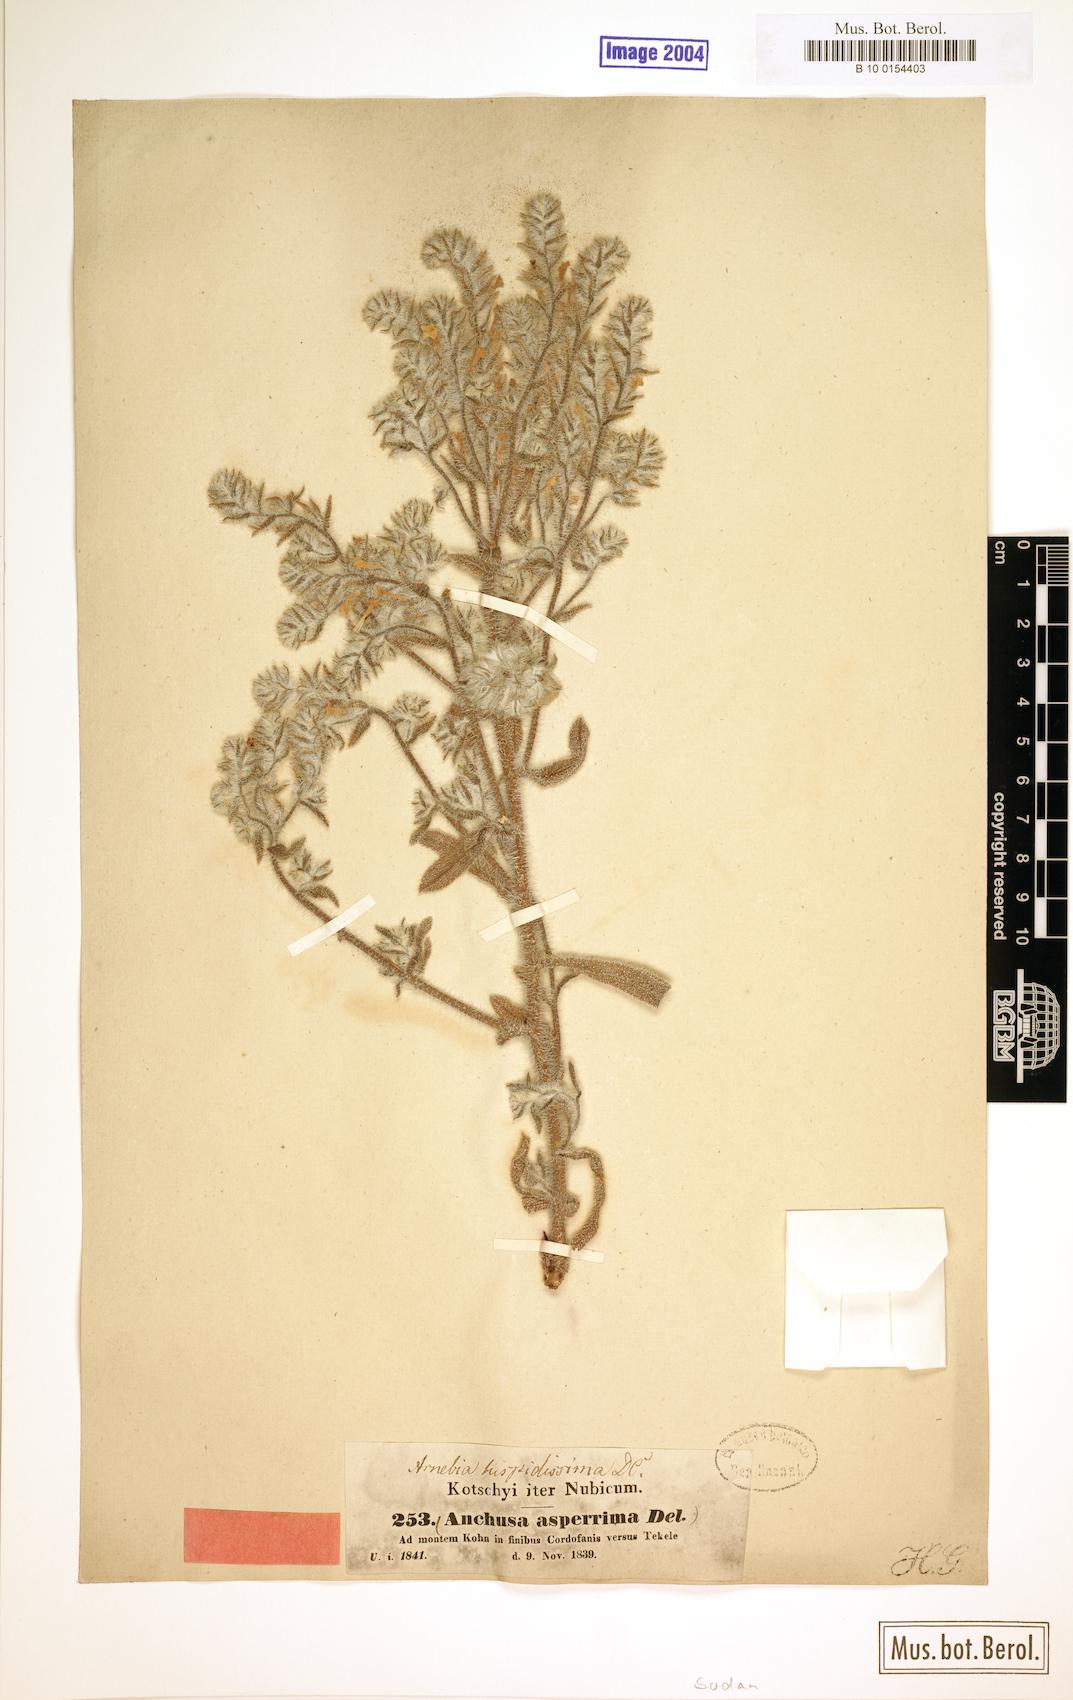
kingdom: Plantae
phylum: Tracheophyta
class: Magnoliopsida
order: Boraginales
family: Boraginaceae
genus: Arnebia
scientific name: Arnebia hispidissima
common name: Arabian-primrose
